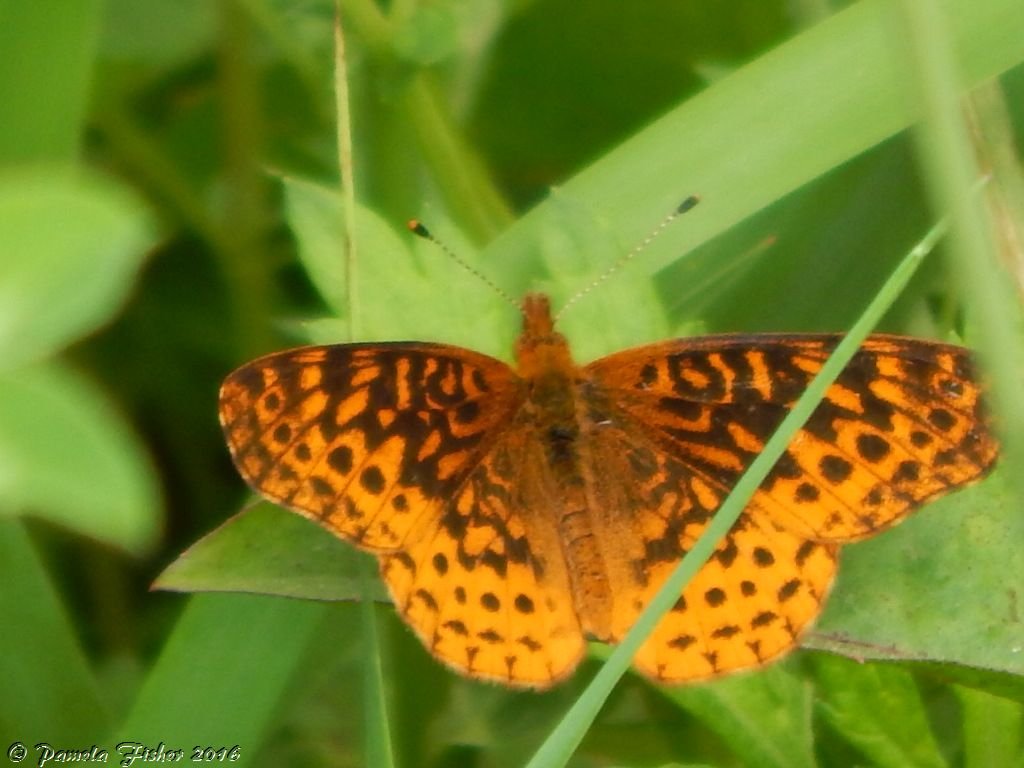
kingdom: Animalia
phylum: Arthropoda
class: Insecta
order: Lepidoptera
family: Nymphalidae
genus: Clossiana
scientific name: Clossiana toddi
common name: Meadow Fritillary
